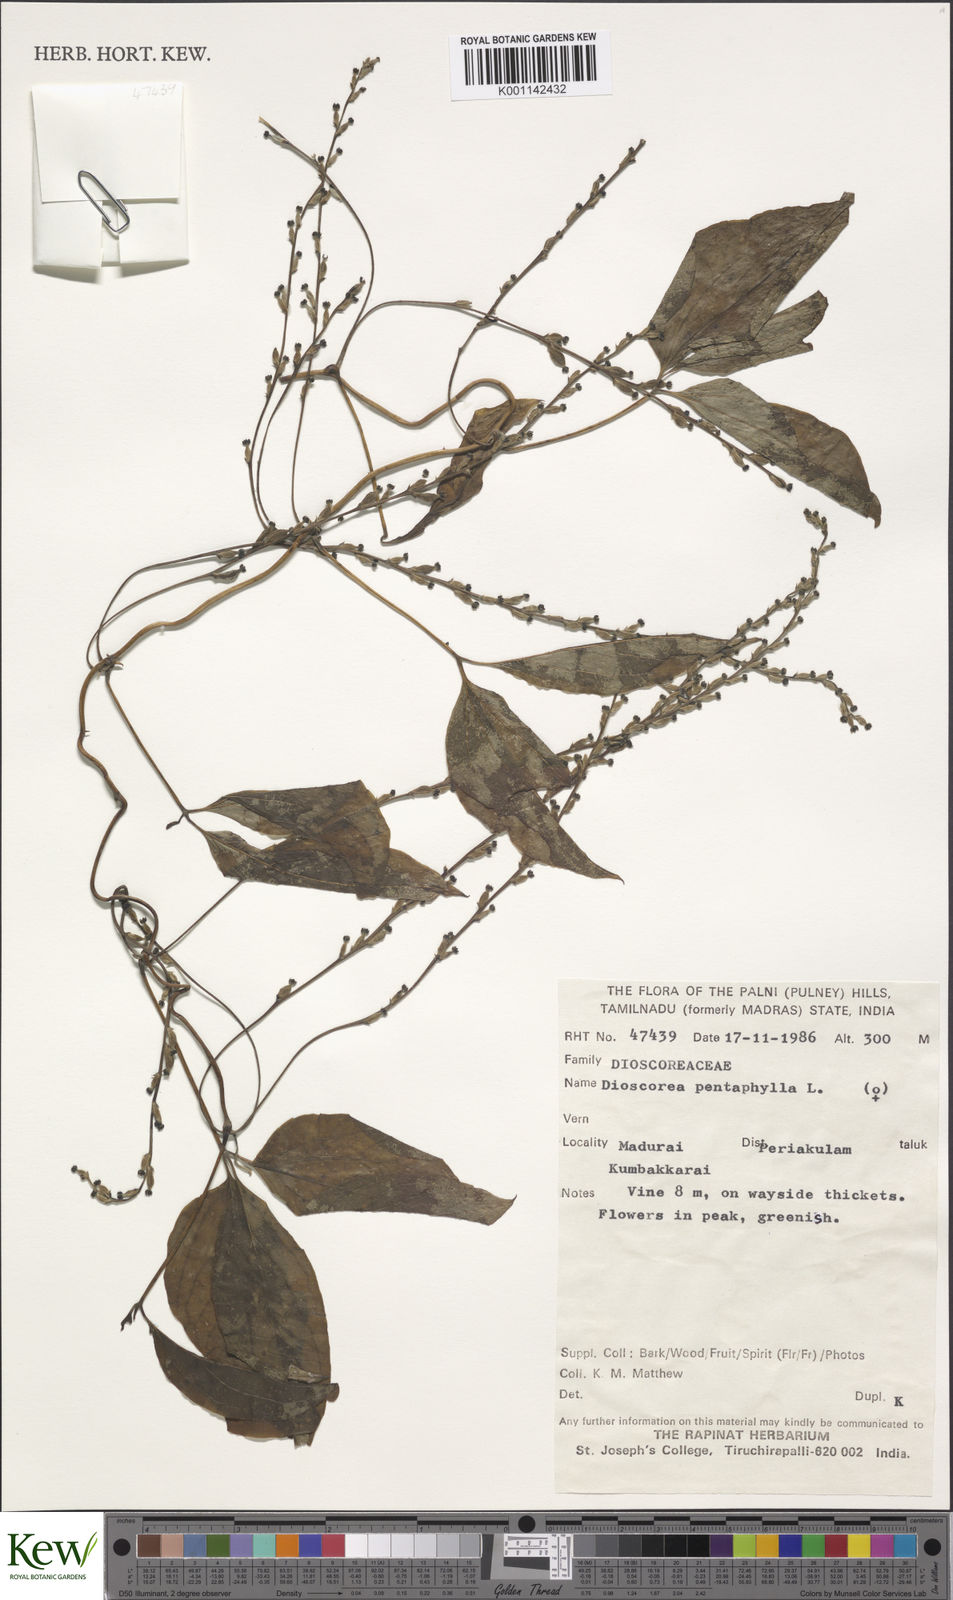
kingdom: Plantae
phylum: Tracheophyta
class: Liliopsida
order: Dioscoreales
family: Dioscoreaceae
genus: Dioscorea
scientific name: Dioscorea pentaphylla
